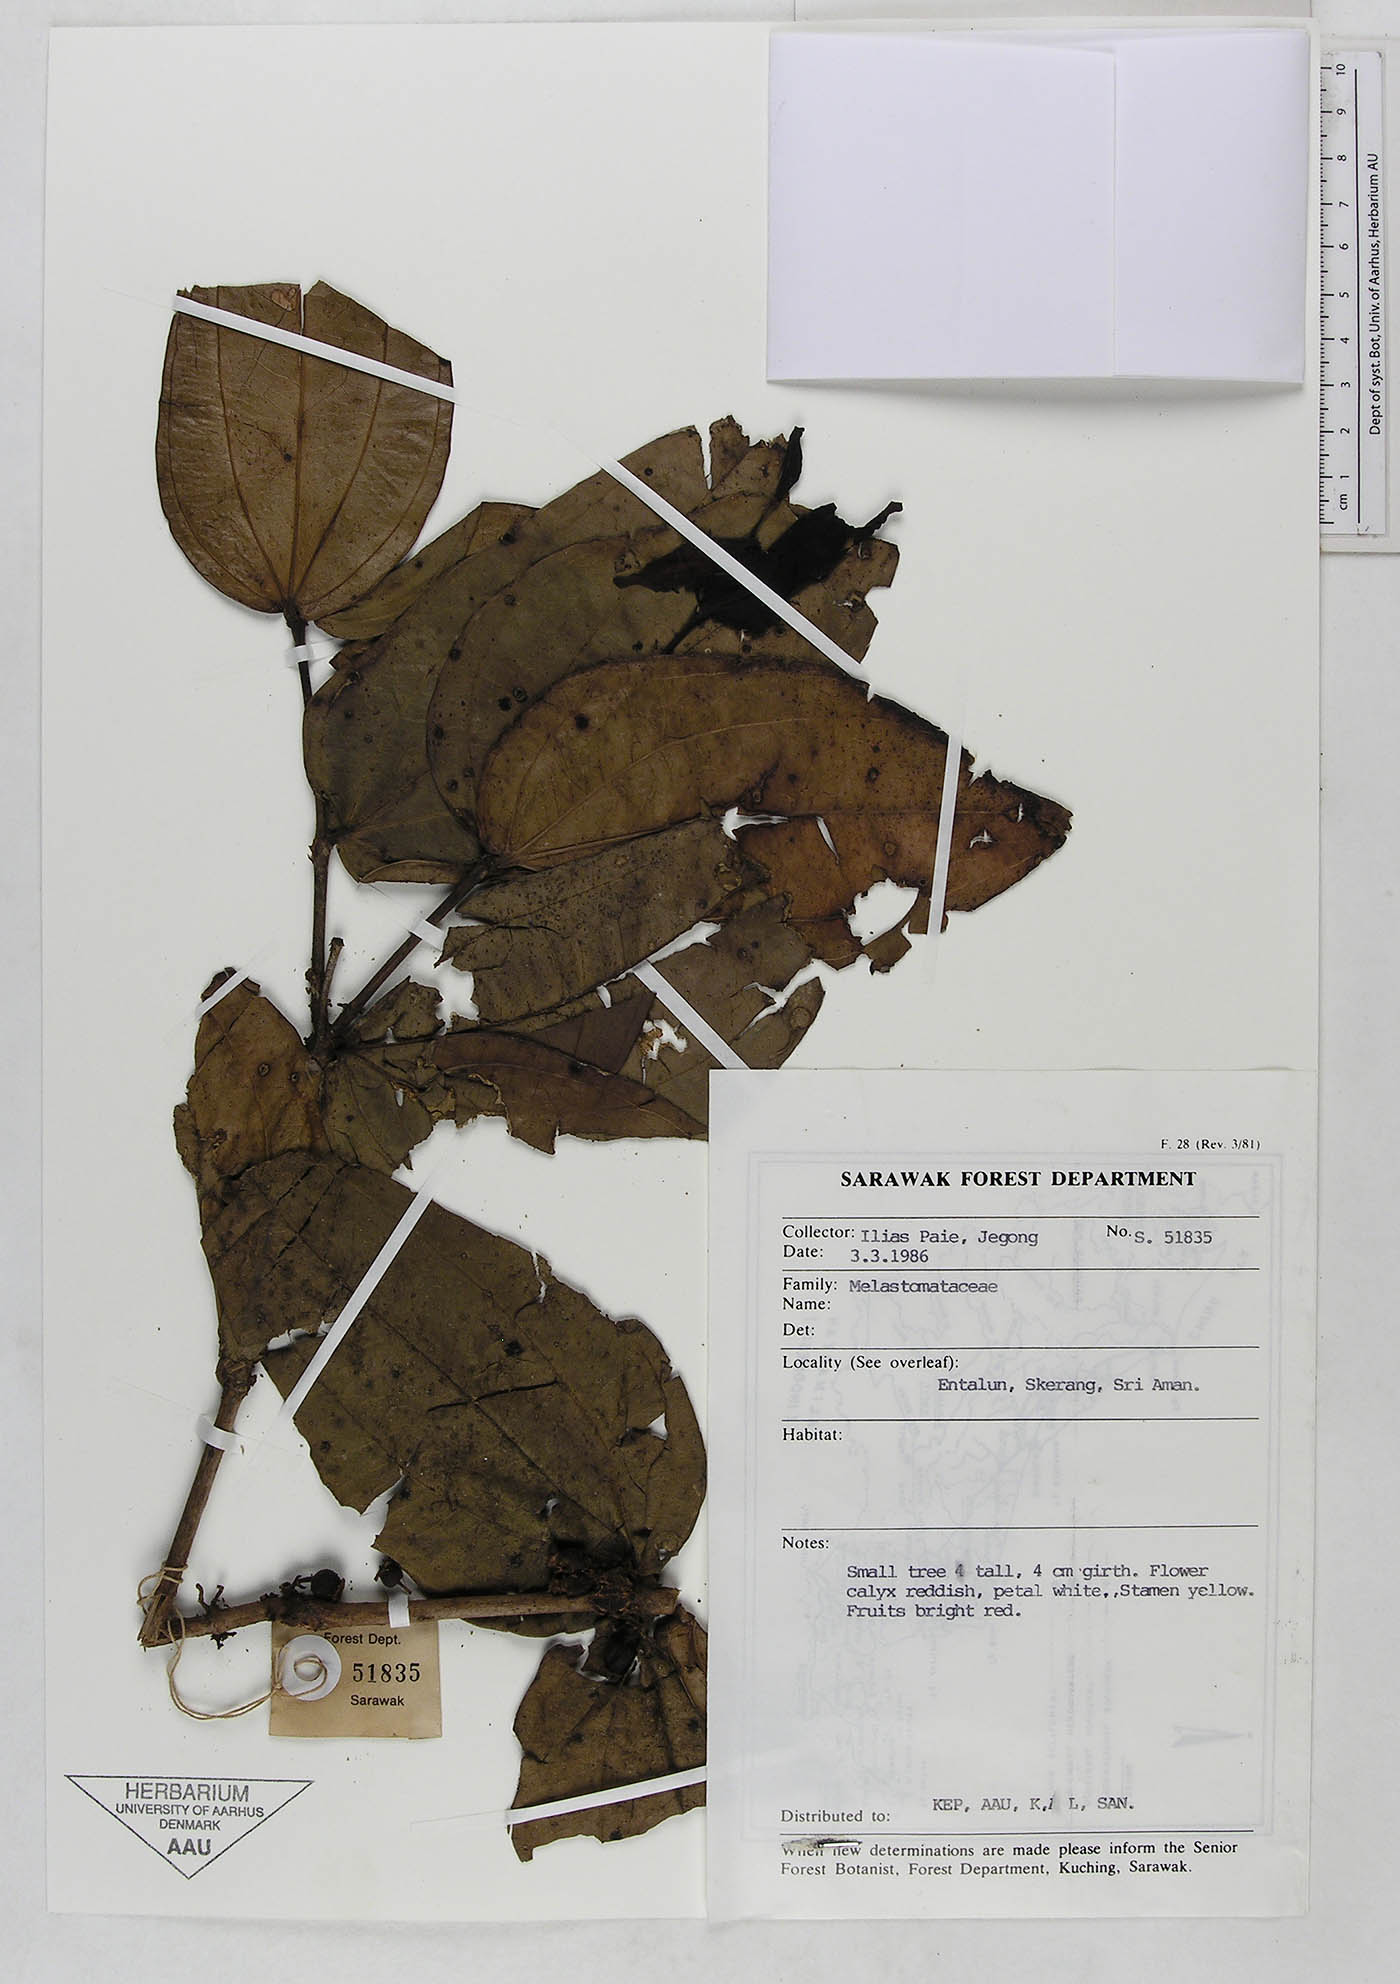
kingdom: Plantae
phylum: Tracheophyta
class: Magnoliopsida
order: Myrtales
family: Melastomataceae
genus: Pternandra
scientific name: Pternandra
